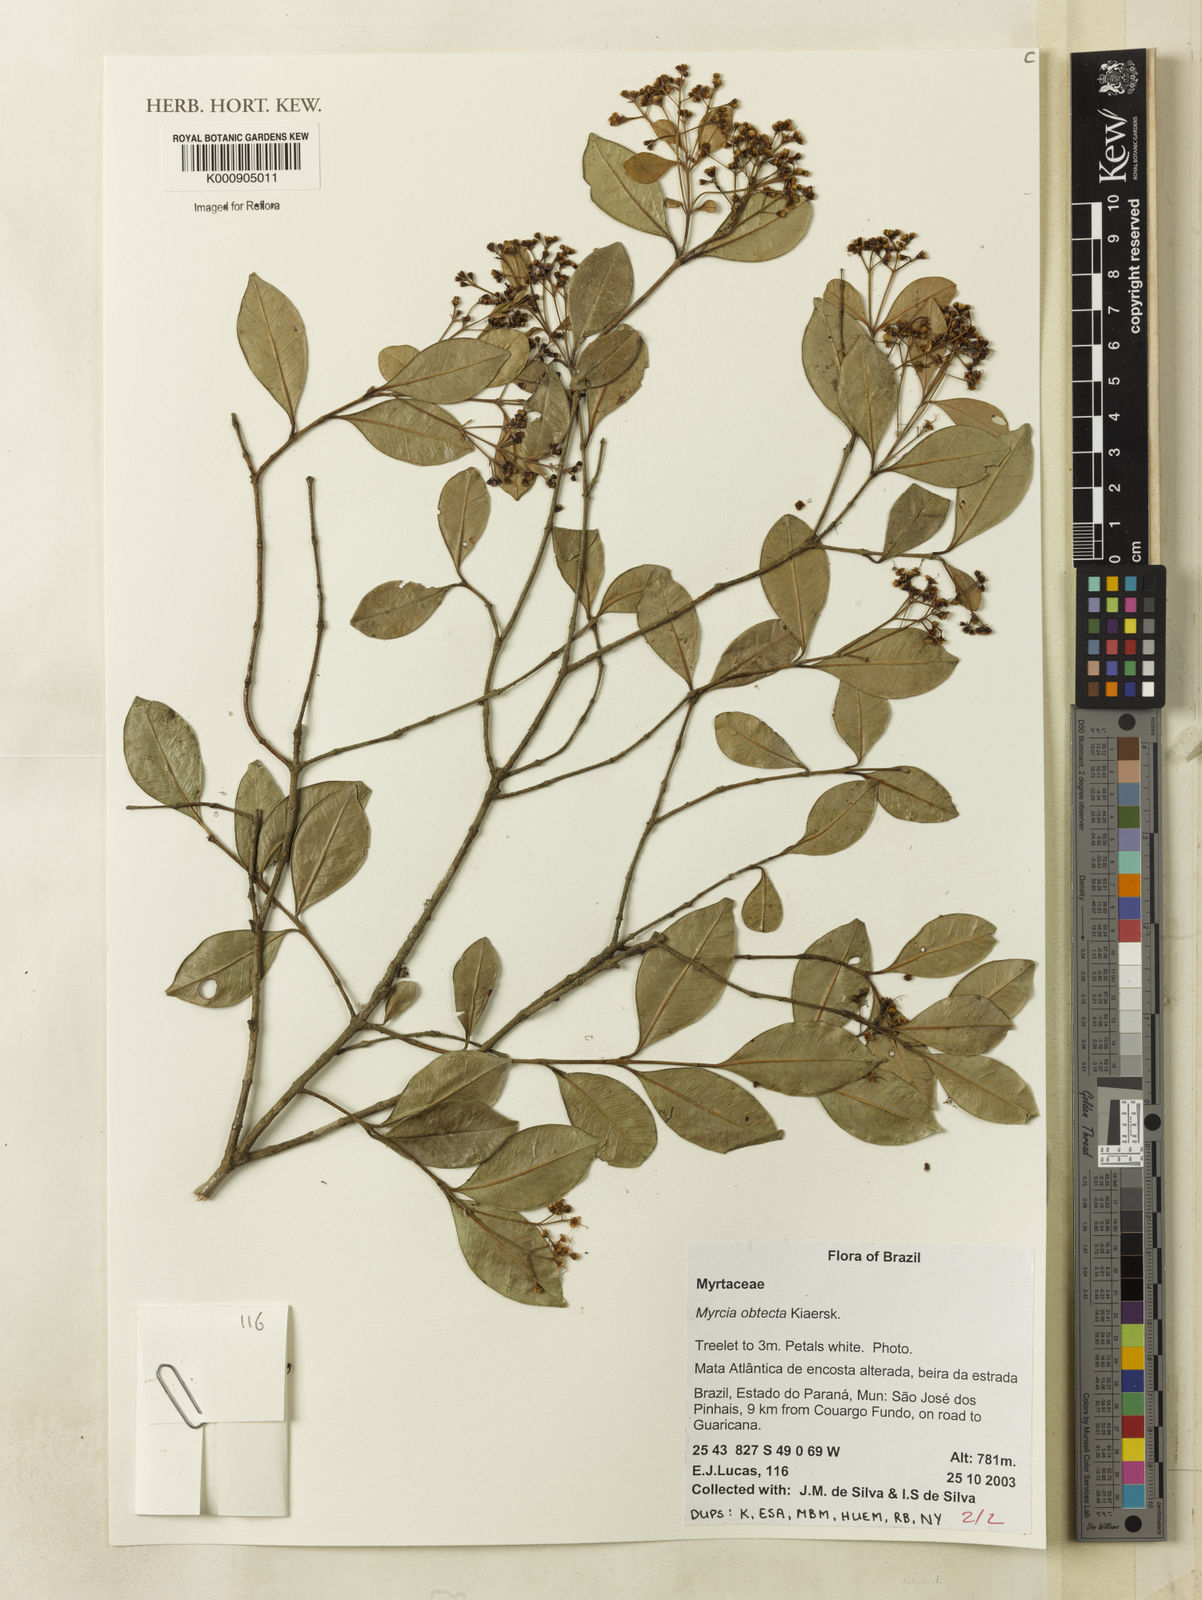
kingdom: Plantae
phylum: Tracheophyta
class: Magnoliopsida
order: Myrtales
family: Myrtaceae
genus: Myrcia
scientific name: Myrcia guianensis
